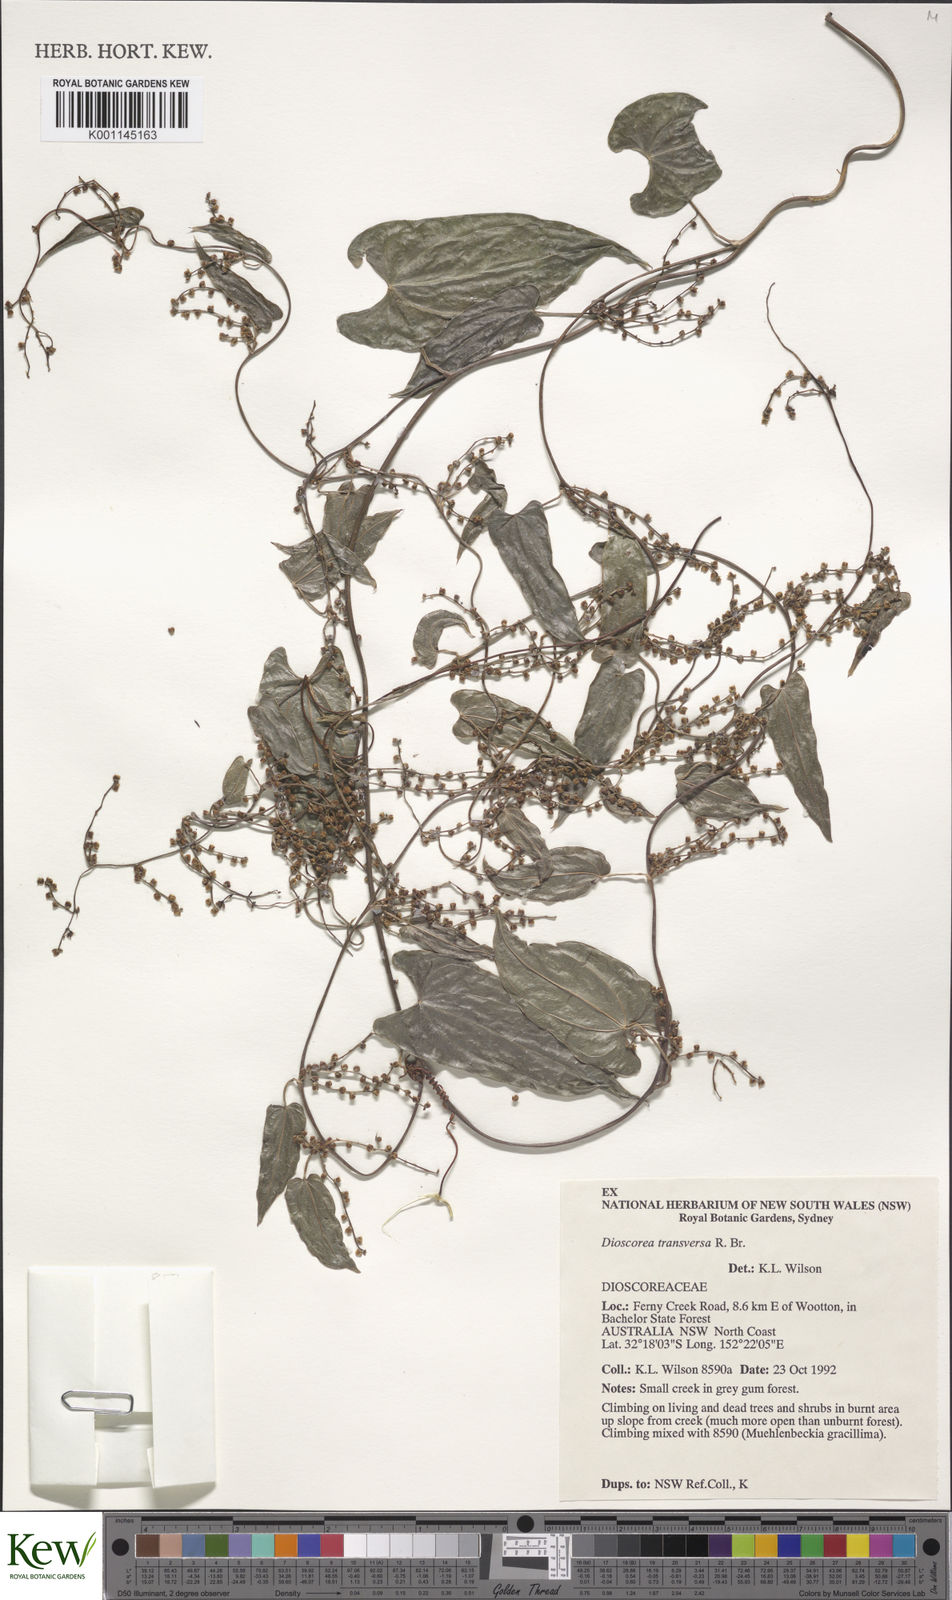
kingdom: Plantae
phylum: Tracheophyta
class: Liliopsida
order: Dioscoreales
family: Dioscoreaceae
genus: Dioscorea
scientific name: Dioscorea transversa
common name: Long yam
